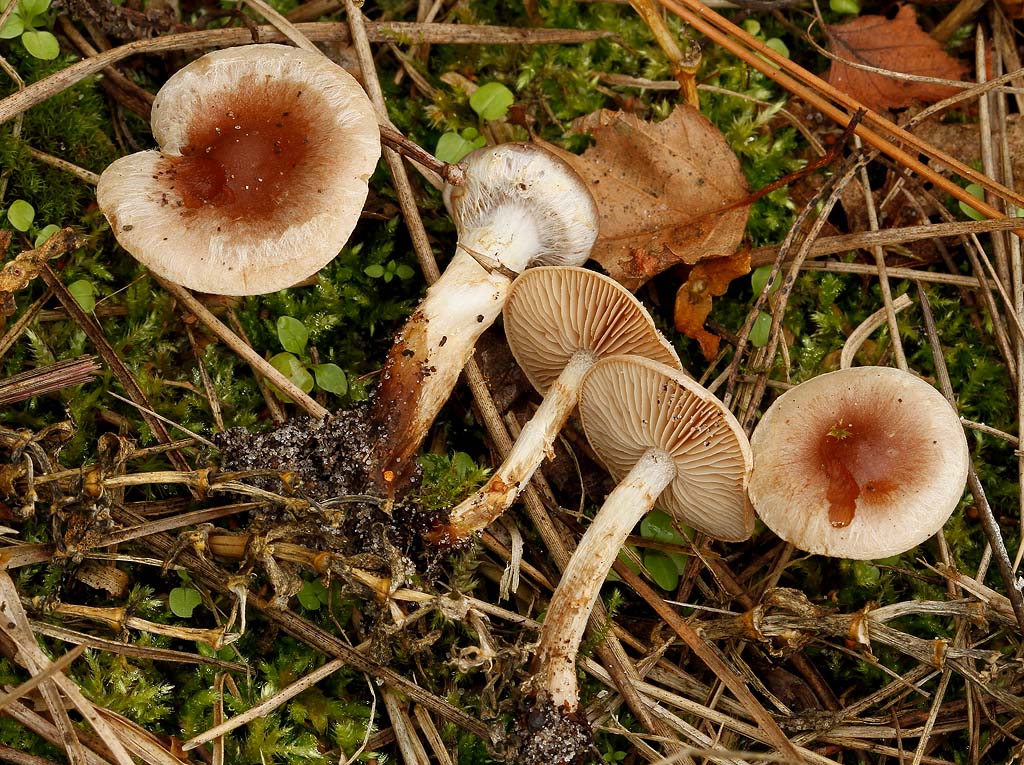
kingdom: Fungi
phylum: Basidiomycota
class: Agaricomycetes
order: Agaricales
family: Hymenogastraceae
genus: Hebeloma
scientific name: Hebeloma mesophaeum
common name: lerbrun tåreblad
